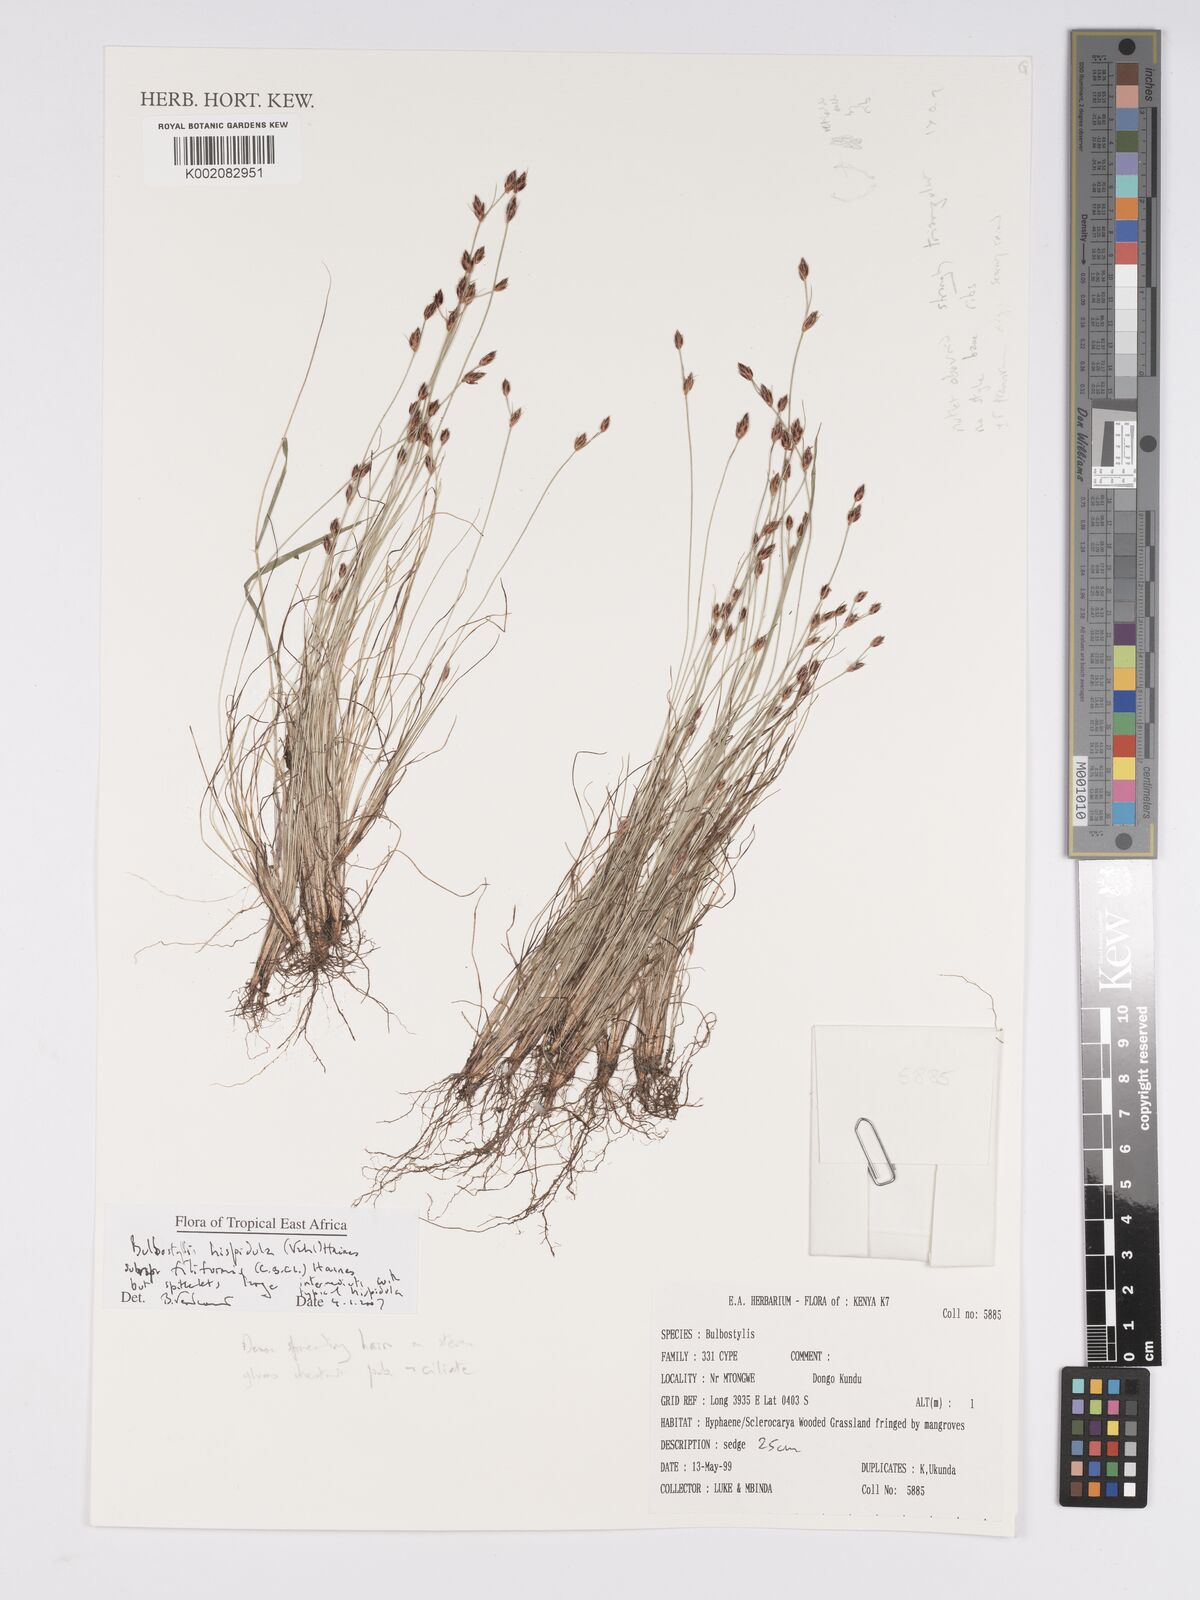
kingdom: Plantae
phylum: Tracheophyta
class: Liliopsida
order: Poales
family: Cyperaceae
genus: Bulbostylis
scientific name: Bulbostylis hispidula
